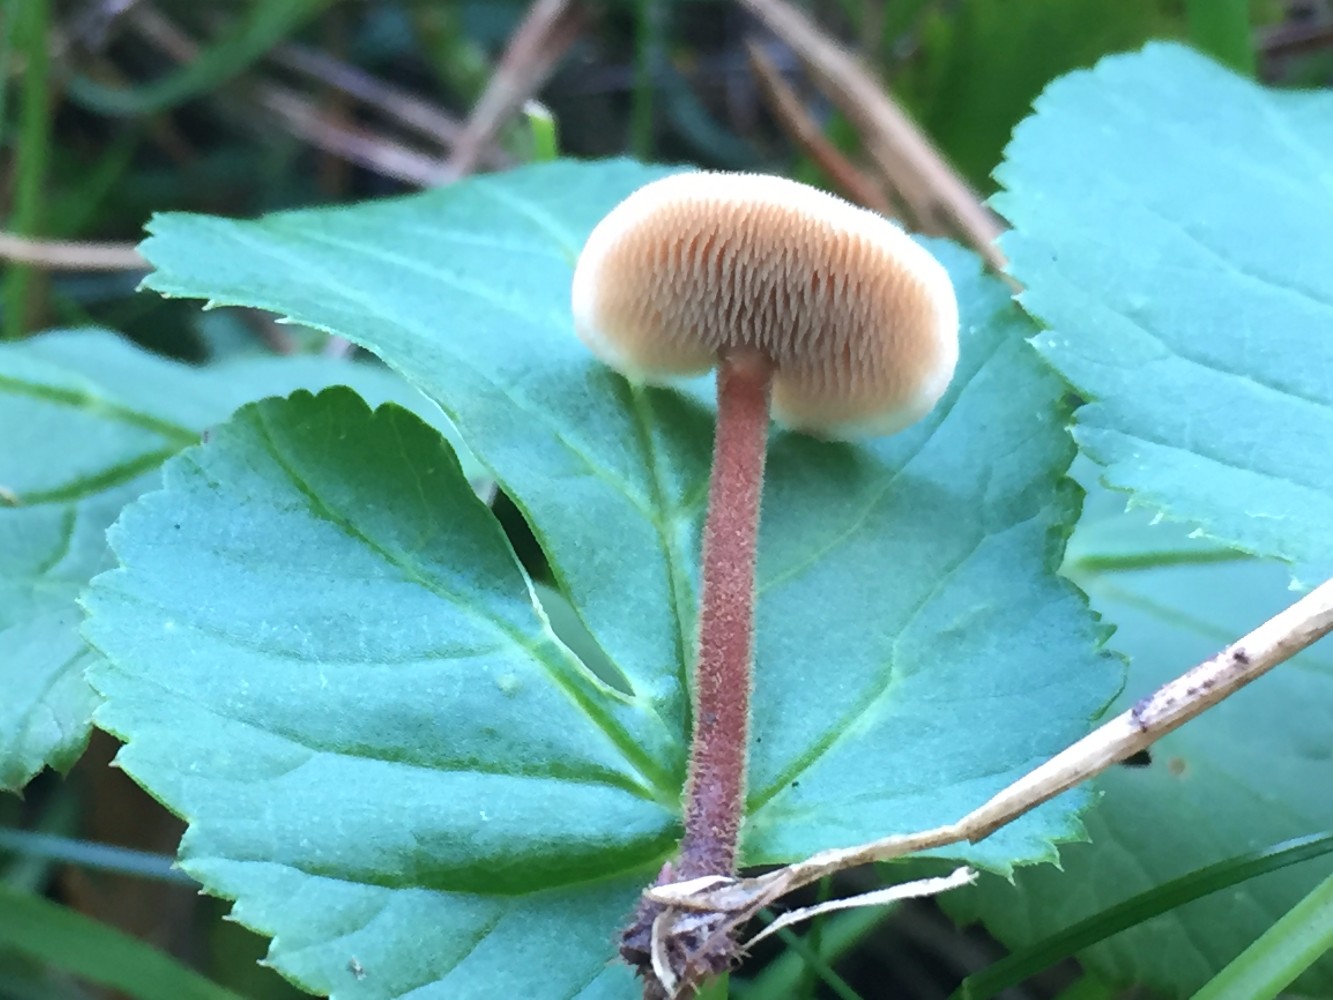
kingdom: Fungi
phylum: Basidiomycota
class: Agaricomycetes
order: Russulales
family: Auriscalpiaceae
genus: Auriscalpium
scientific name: Auriscalpium vulgare
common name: koglepigsvamp
